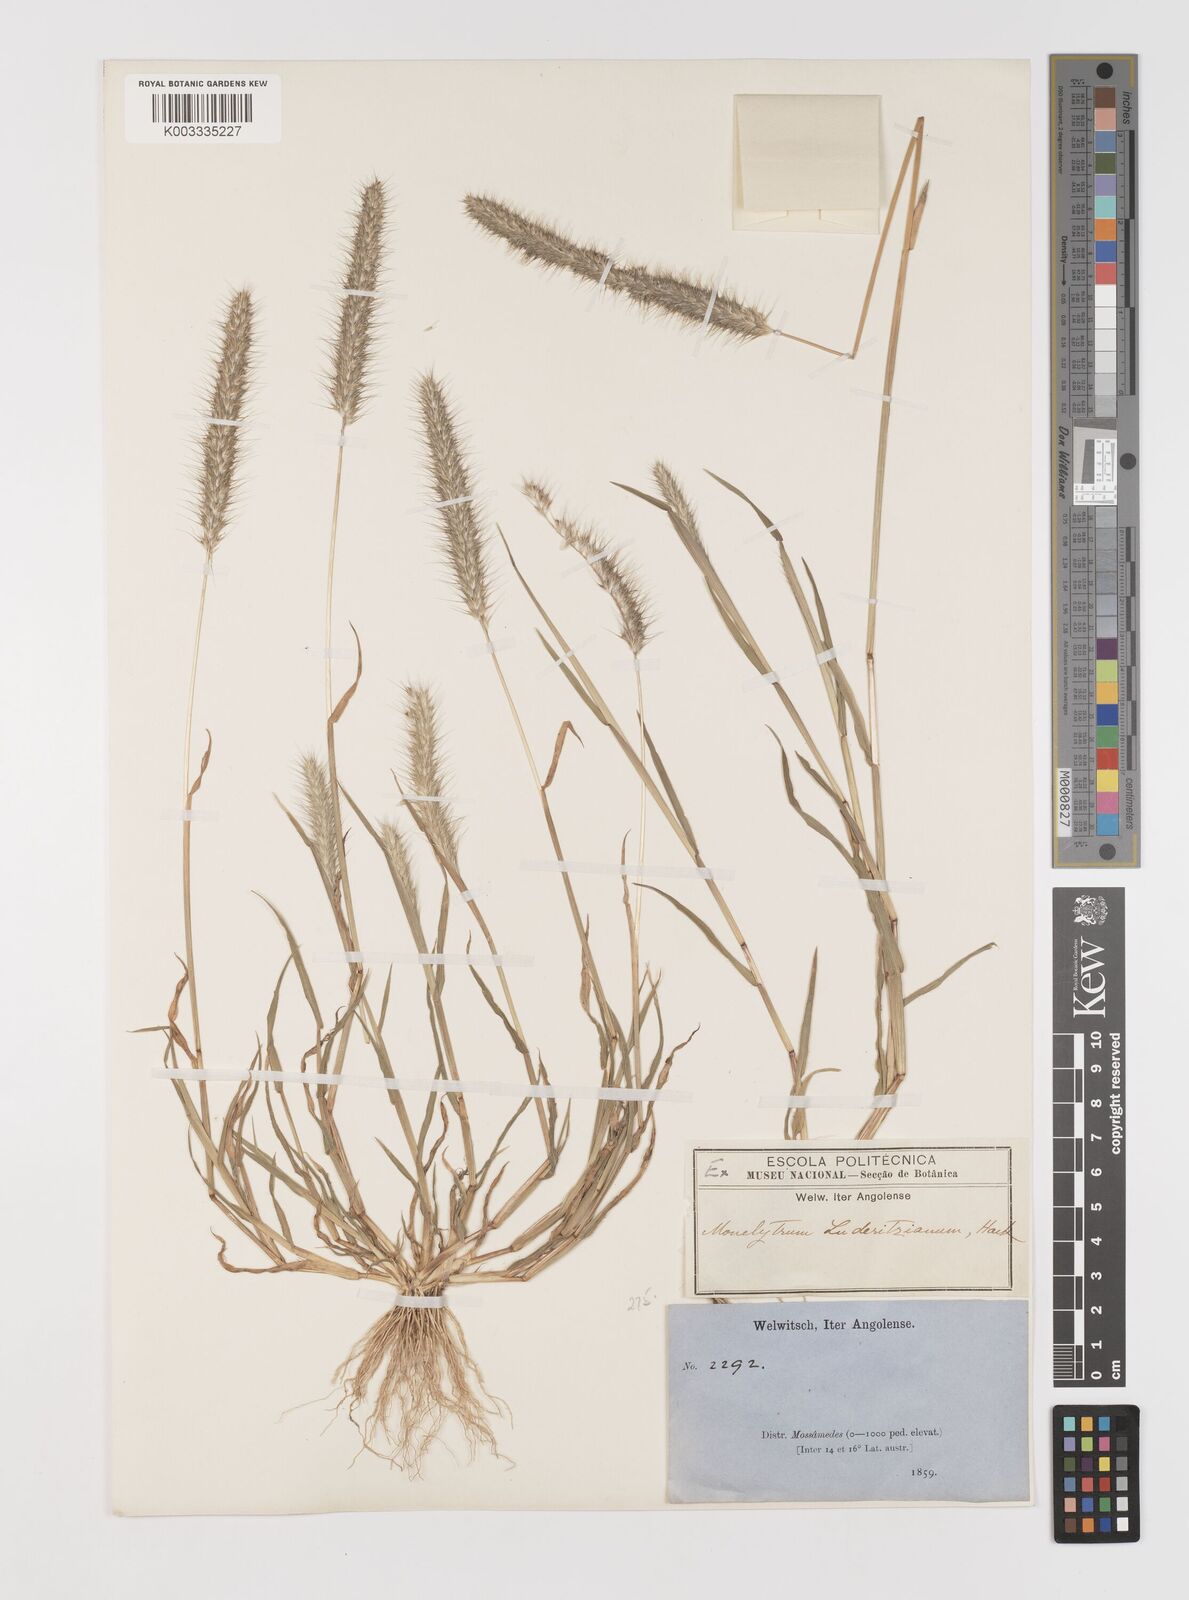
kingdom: Plantae
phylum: Tracheophyta
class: Liliopsida
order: Poales
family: Poaceae
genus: Monelytrum
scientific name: Monelytrum luederitzianum
